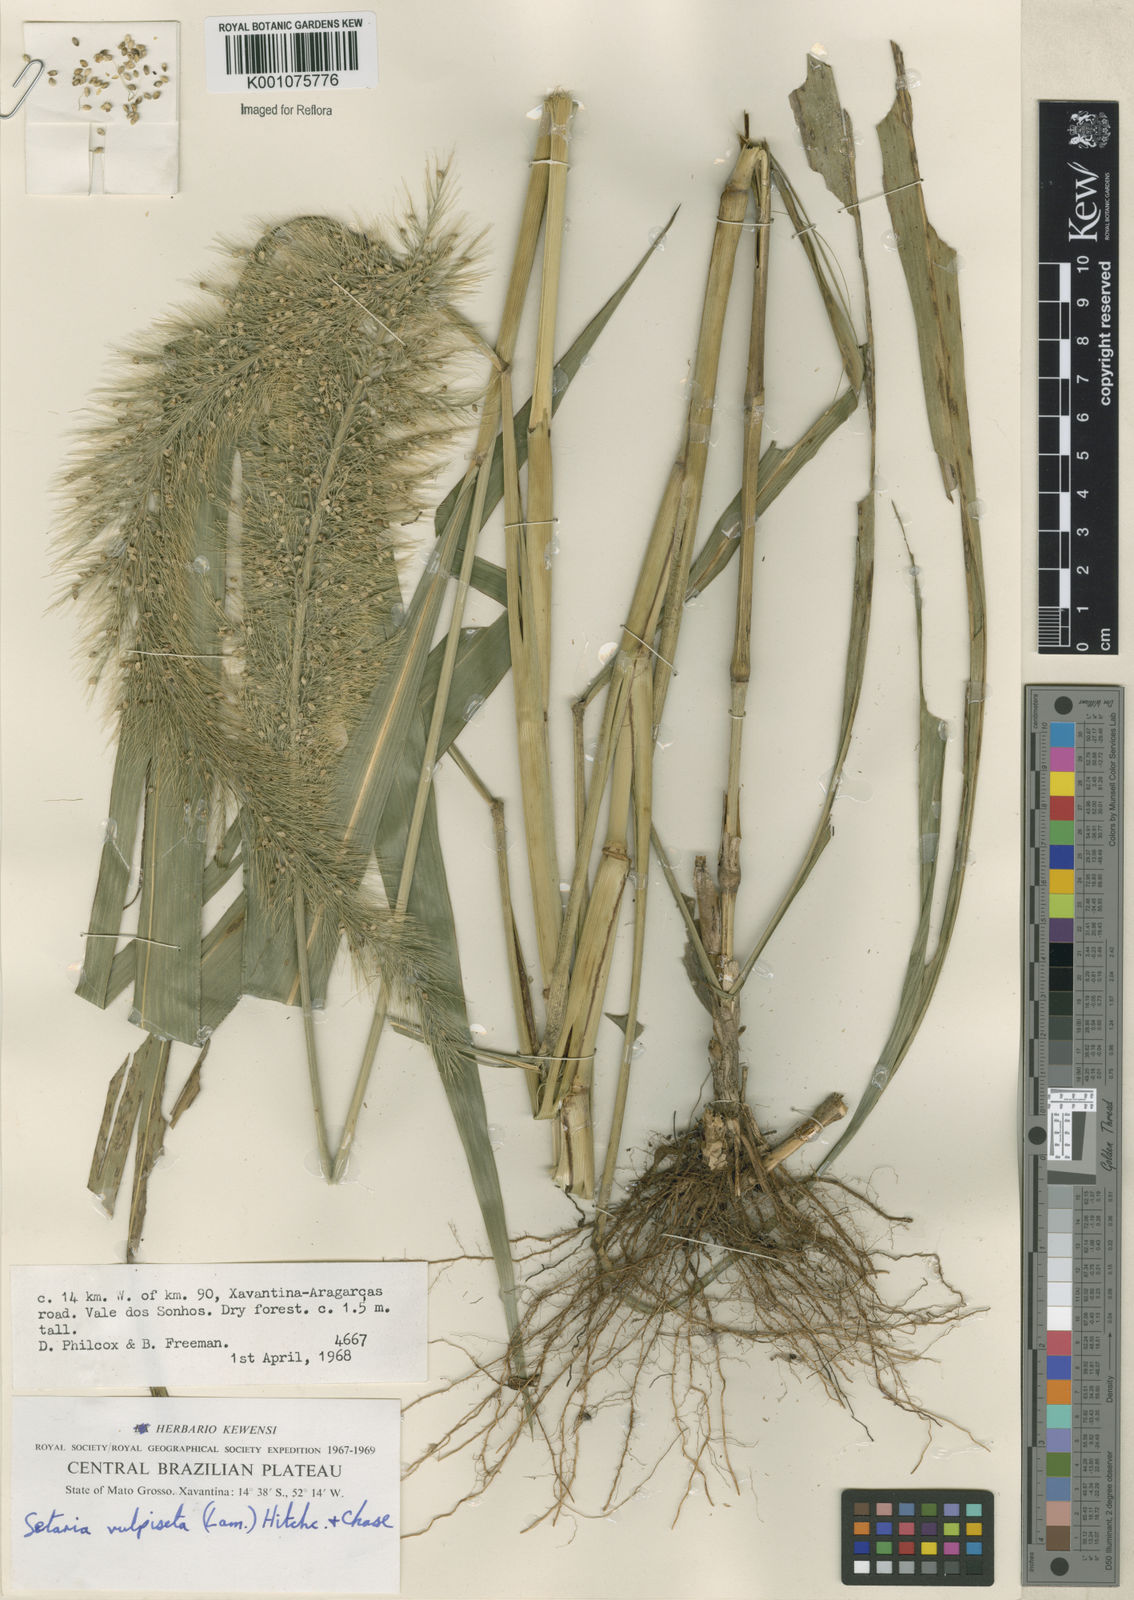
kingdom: Plantae
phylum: Tracheophyta
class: Liliopsida
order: Poales
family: Poaceae
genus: Setaria
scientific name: Setaria vulpiseta
